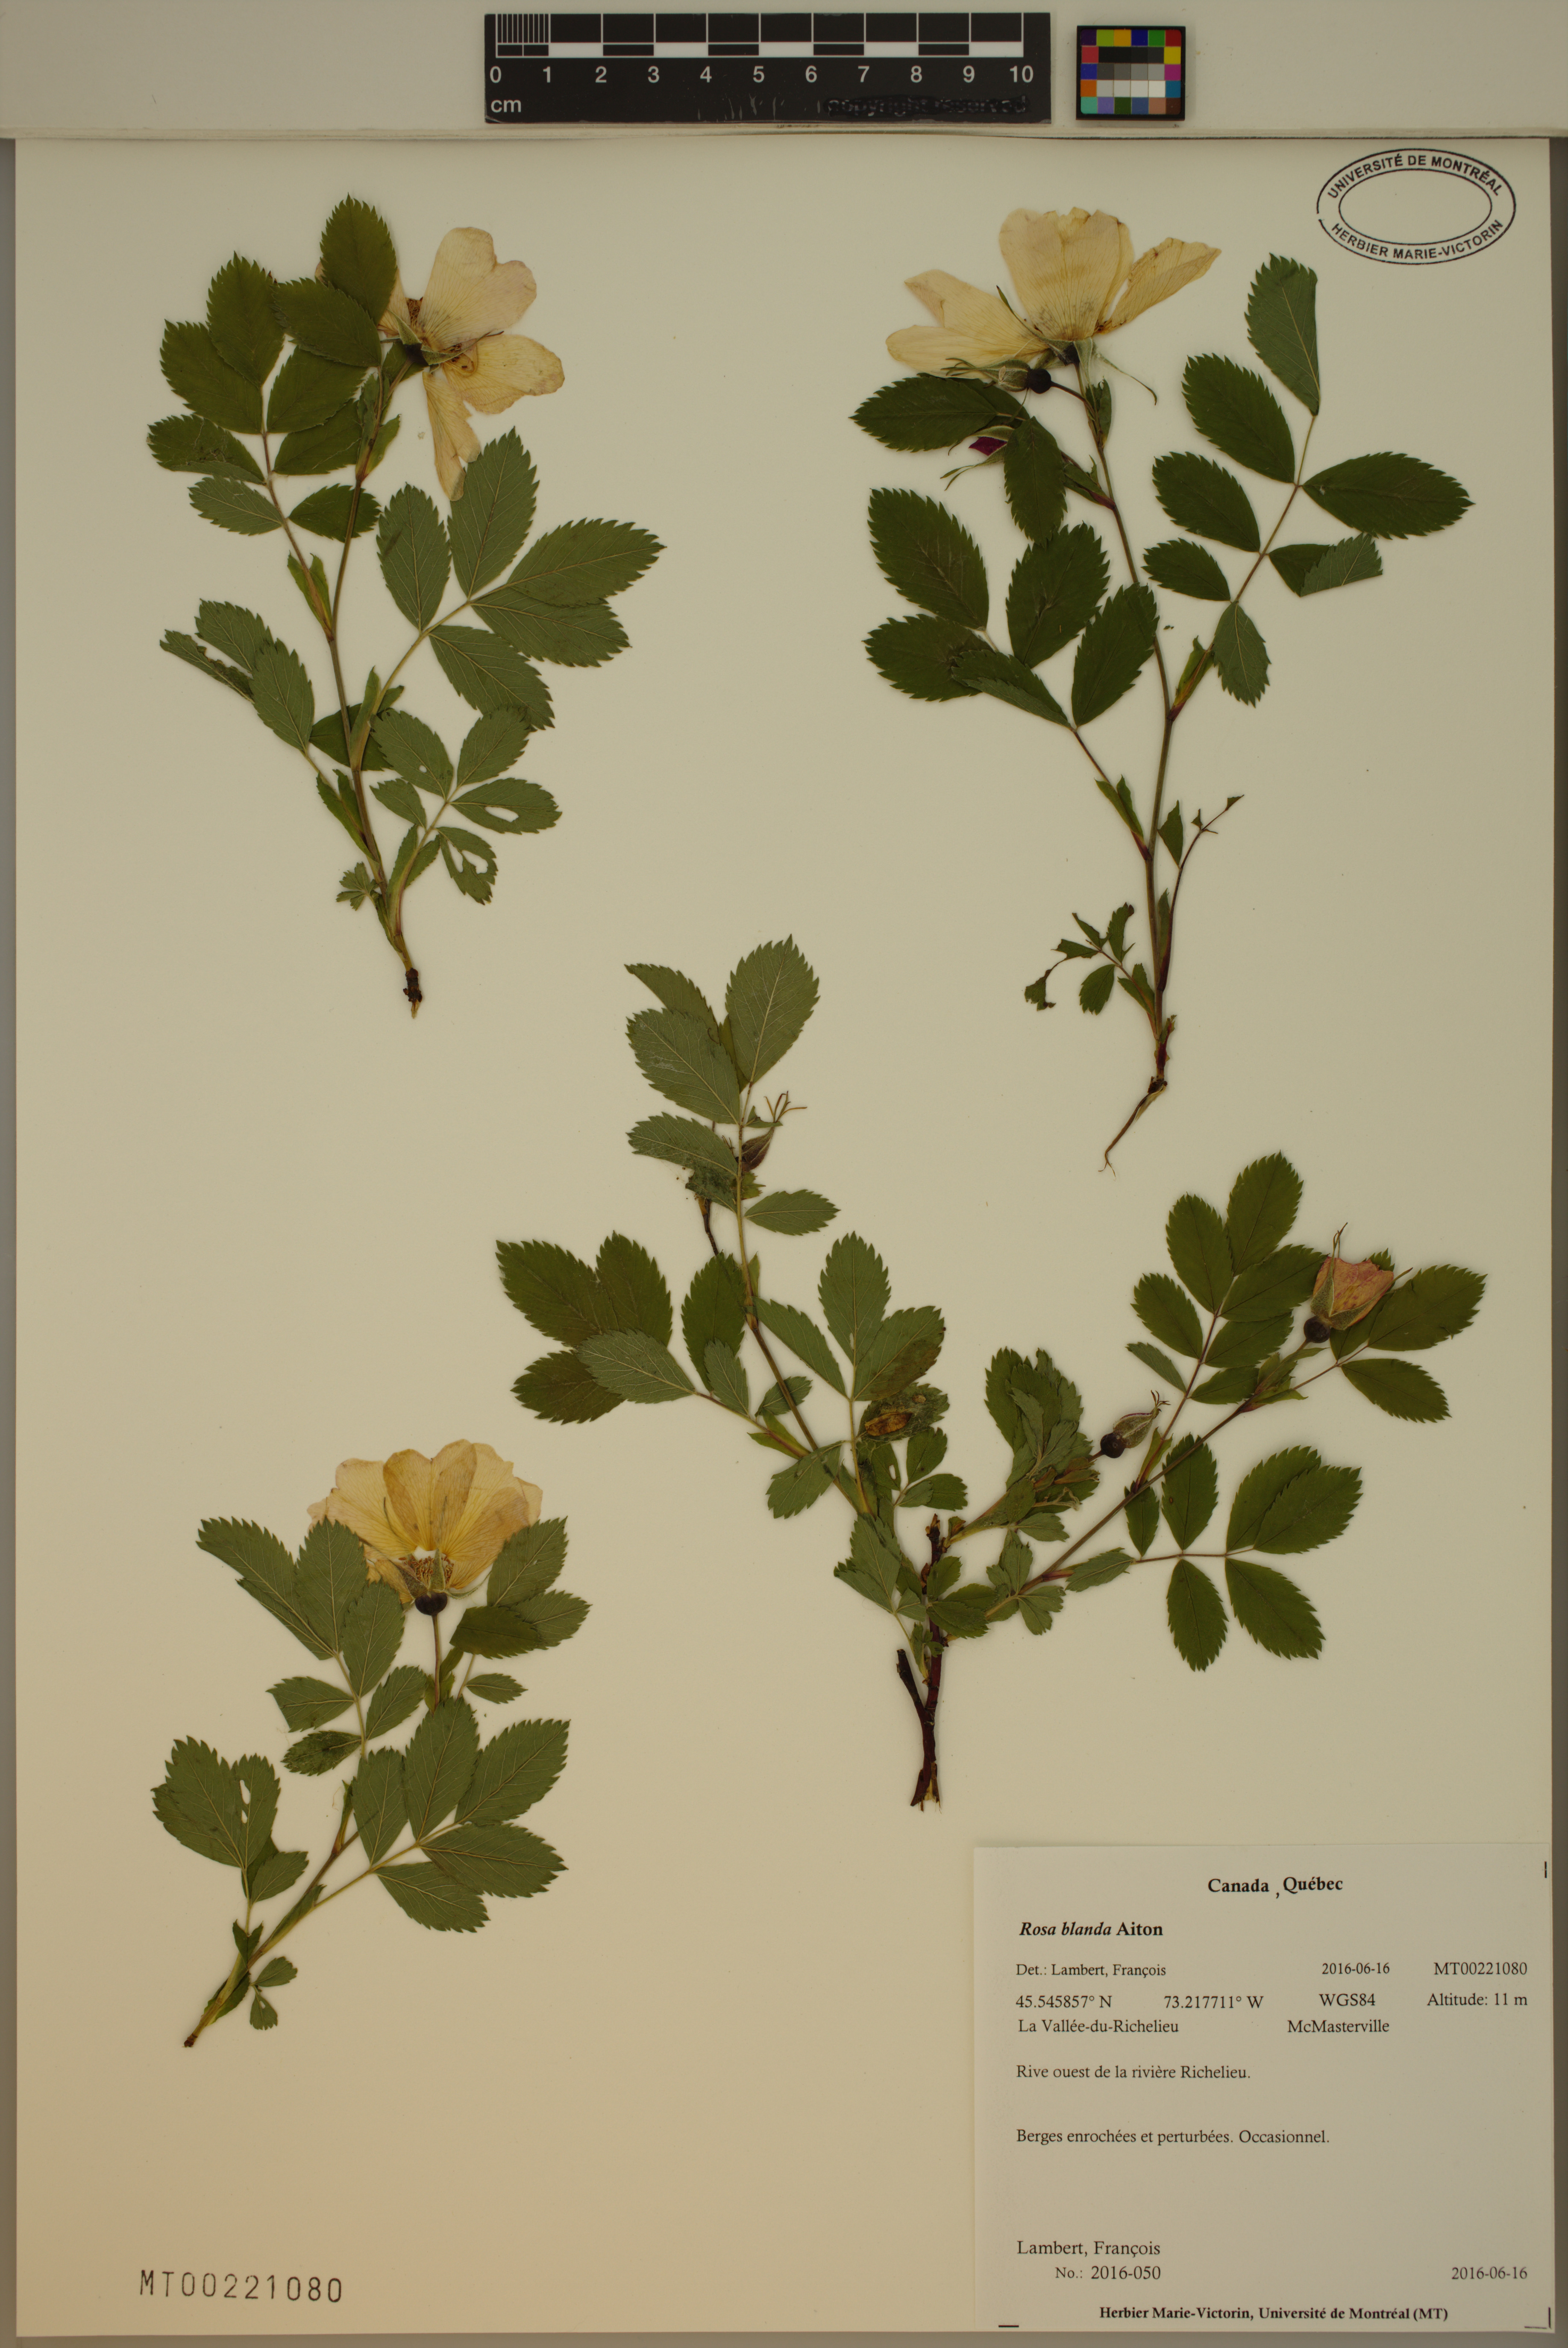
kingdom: Plantae
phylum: Tracheophyta
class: Magnoliopsida
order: Rosales
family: Rosaceae
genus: Rosa
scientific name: Rosa blanda
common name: Smooth rose
